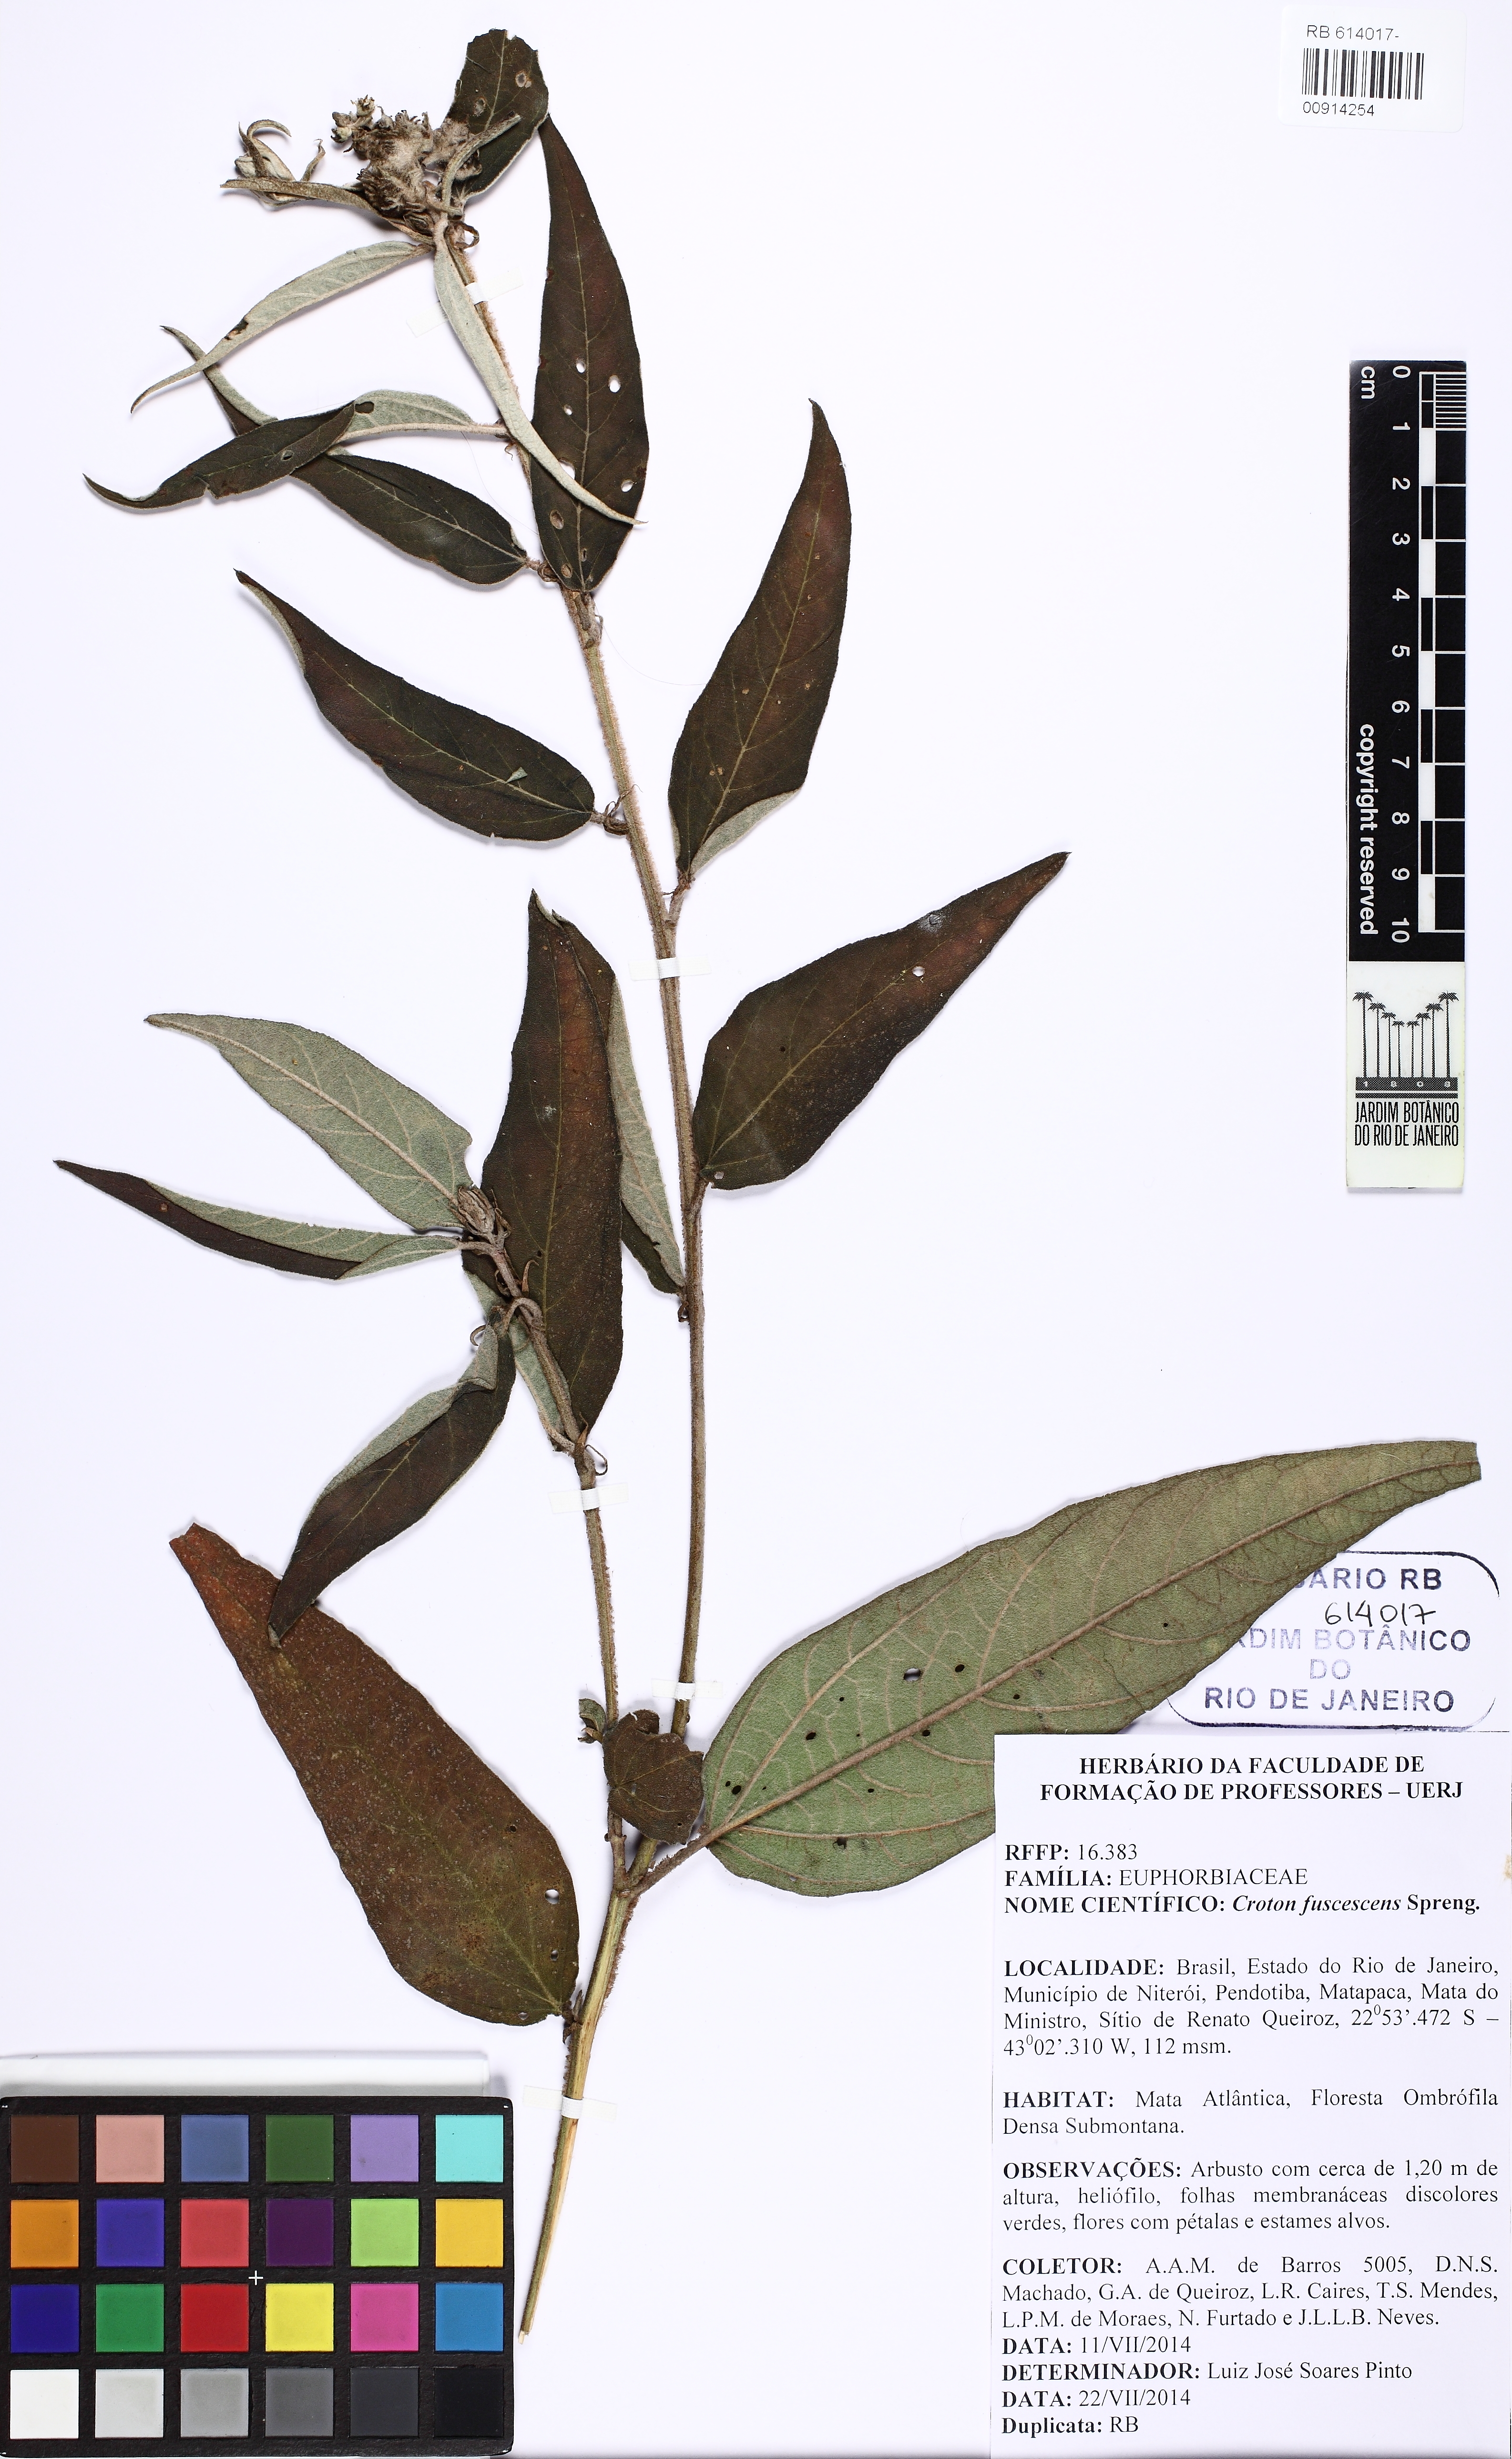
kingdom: Plantae
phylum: Tracheophyta
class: Magnoliopsida
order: Malpighiales
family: Euphorbiaceae
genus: Croton
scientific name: Croton gnaphaloides
